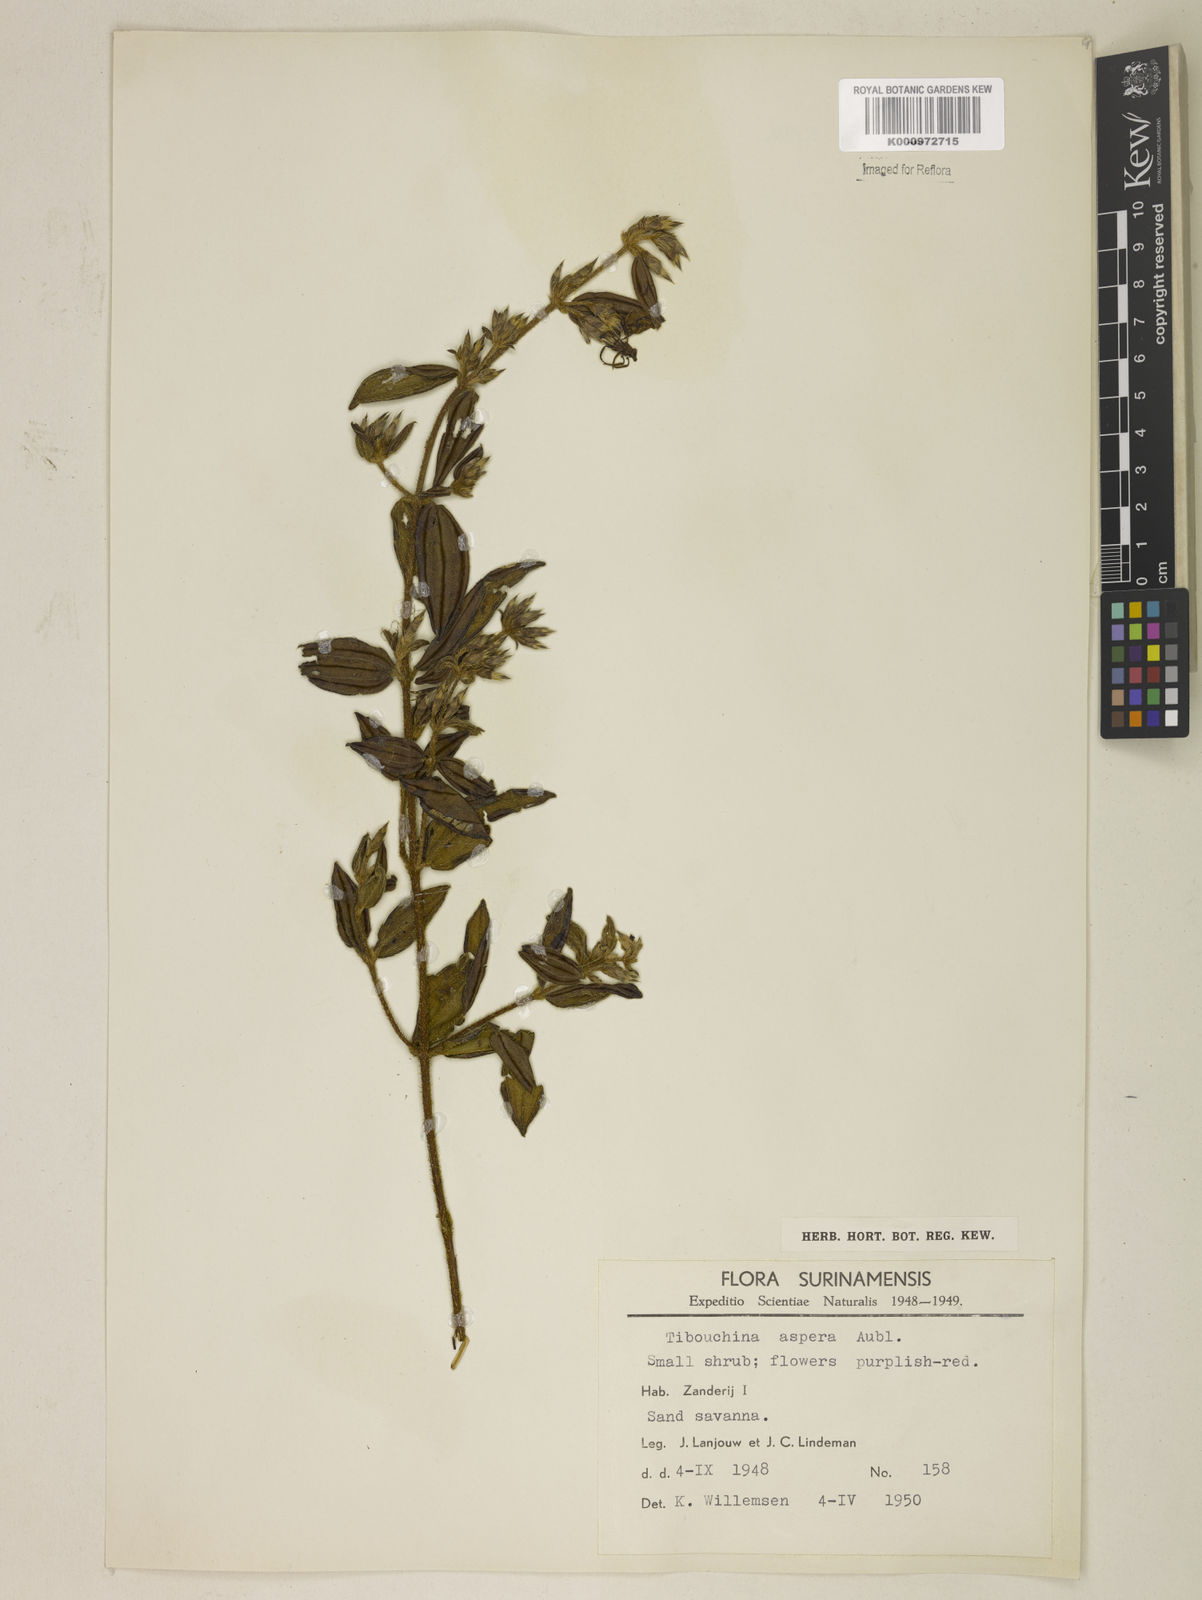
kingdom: Plantae
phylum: Tracheophyta
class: Magnoliopsida
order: Myrtales
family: Melastomataceae
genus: Tibouchina
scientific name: Tibouchina aspera
